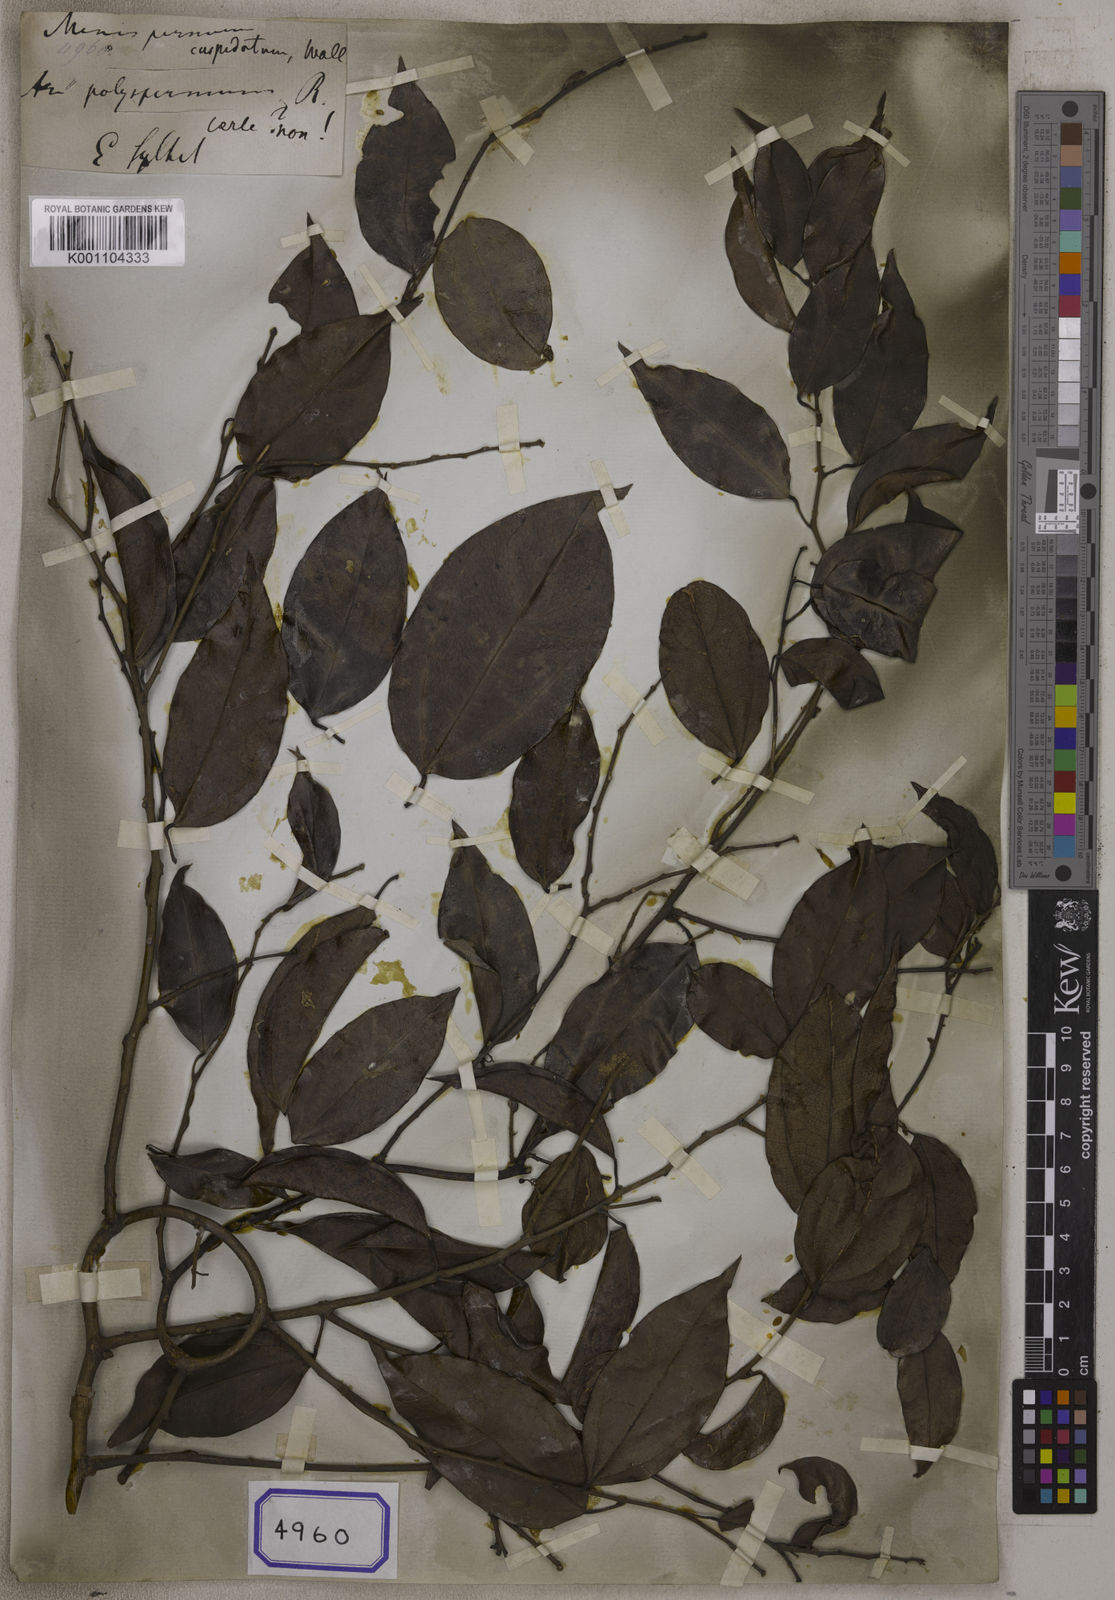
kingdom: Plantae
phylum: Tracheophyta
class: Magnoliopsida
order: Ranunculales
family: Menispermaceae
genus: Hypserpa
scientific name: Hypserpa nitida
